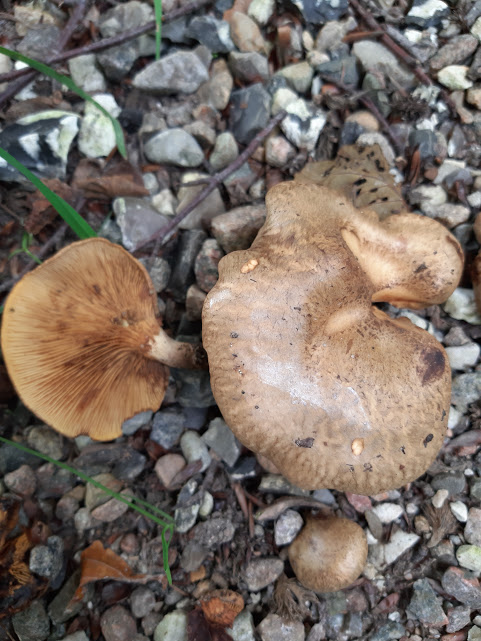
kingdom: Fungi
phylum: Basidiomycota
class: Agaricomycetes
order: Boletales
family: Paxillaceae
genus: Paxillus
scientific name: Paxillus rubicundulus
